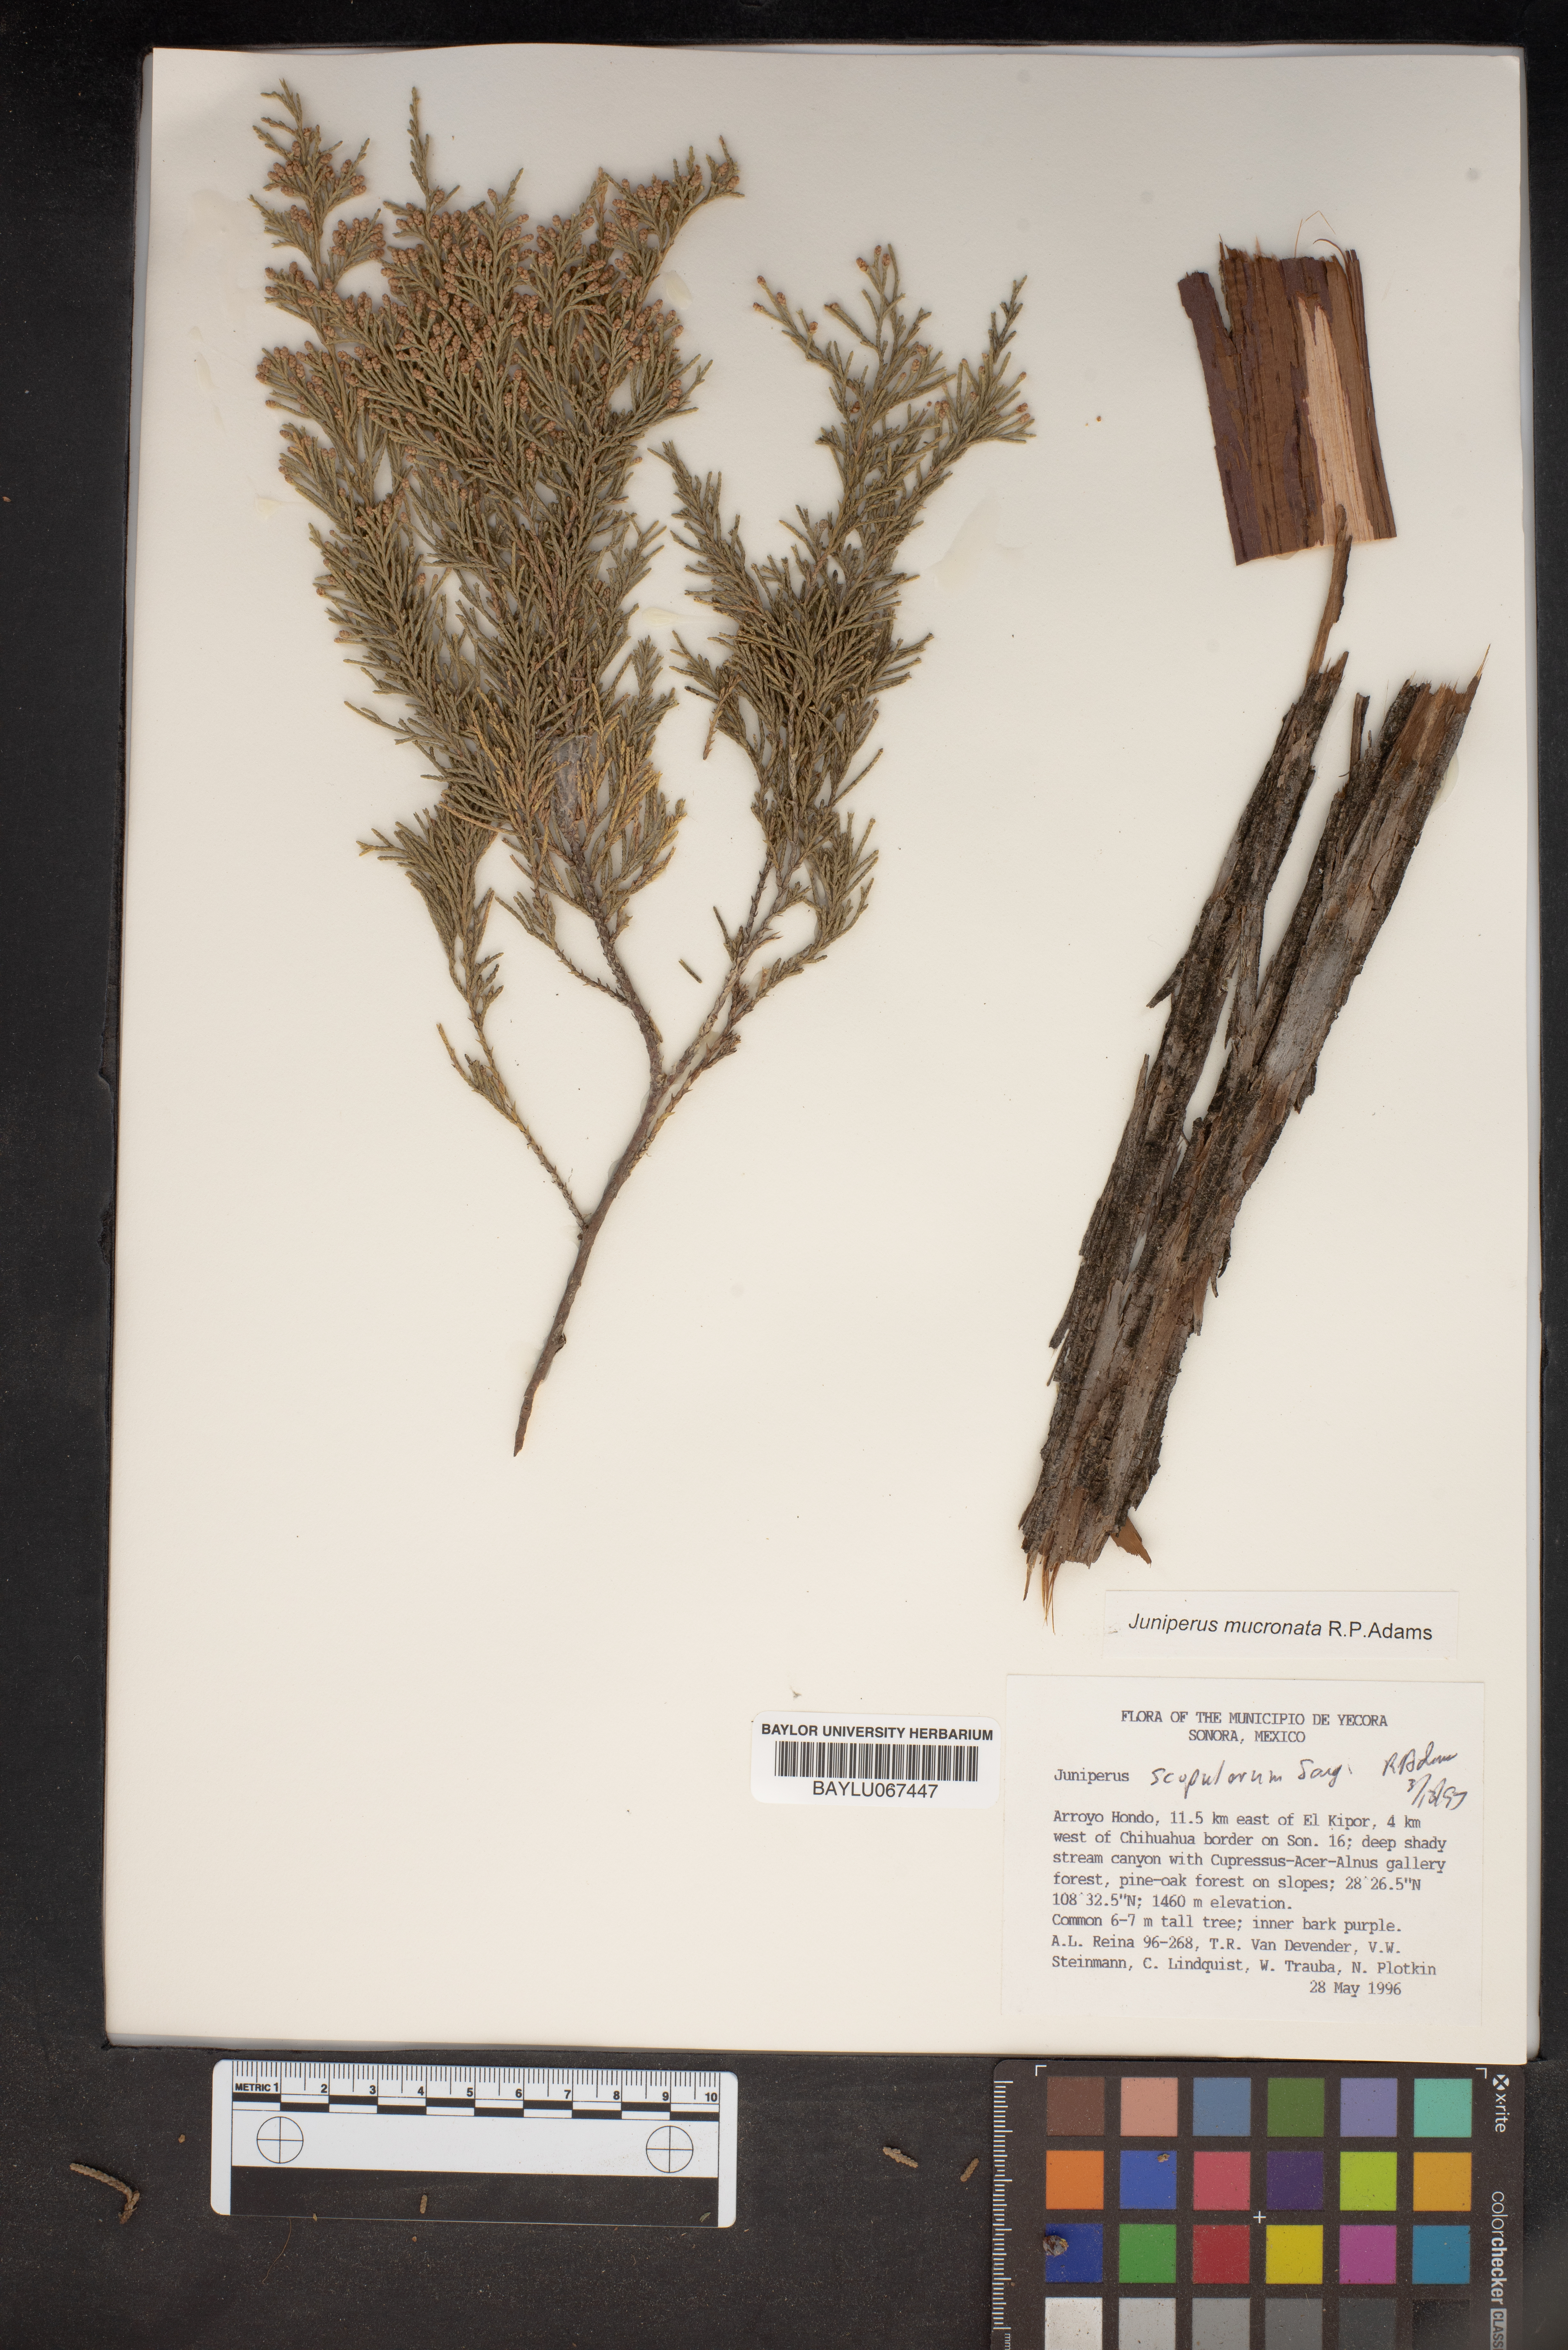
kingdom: Plantae
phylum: Tracheophyta
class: Pinopsida
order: Pinales
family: Cupressaceae
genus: Juniperus
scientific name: Juniperus blancoi
